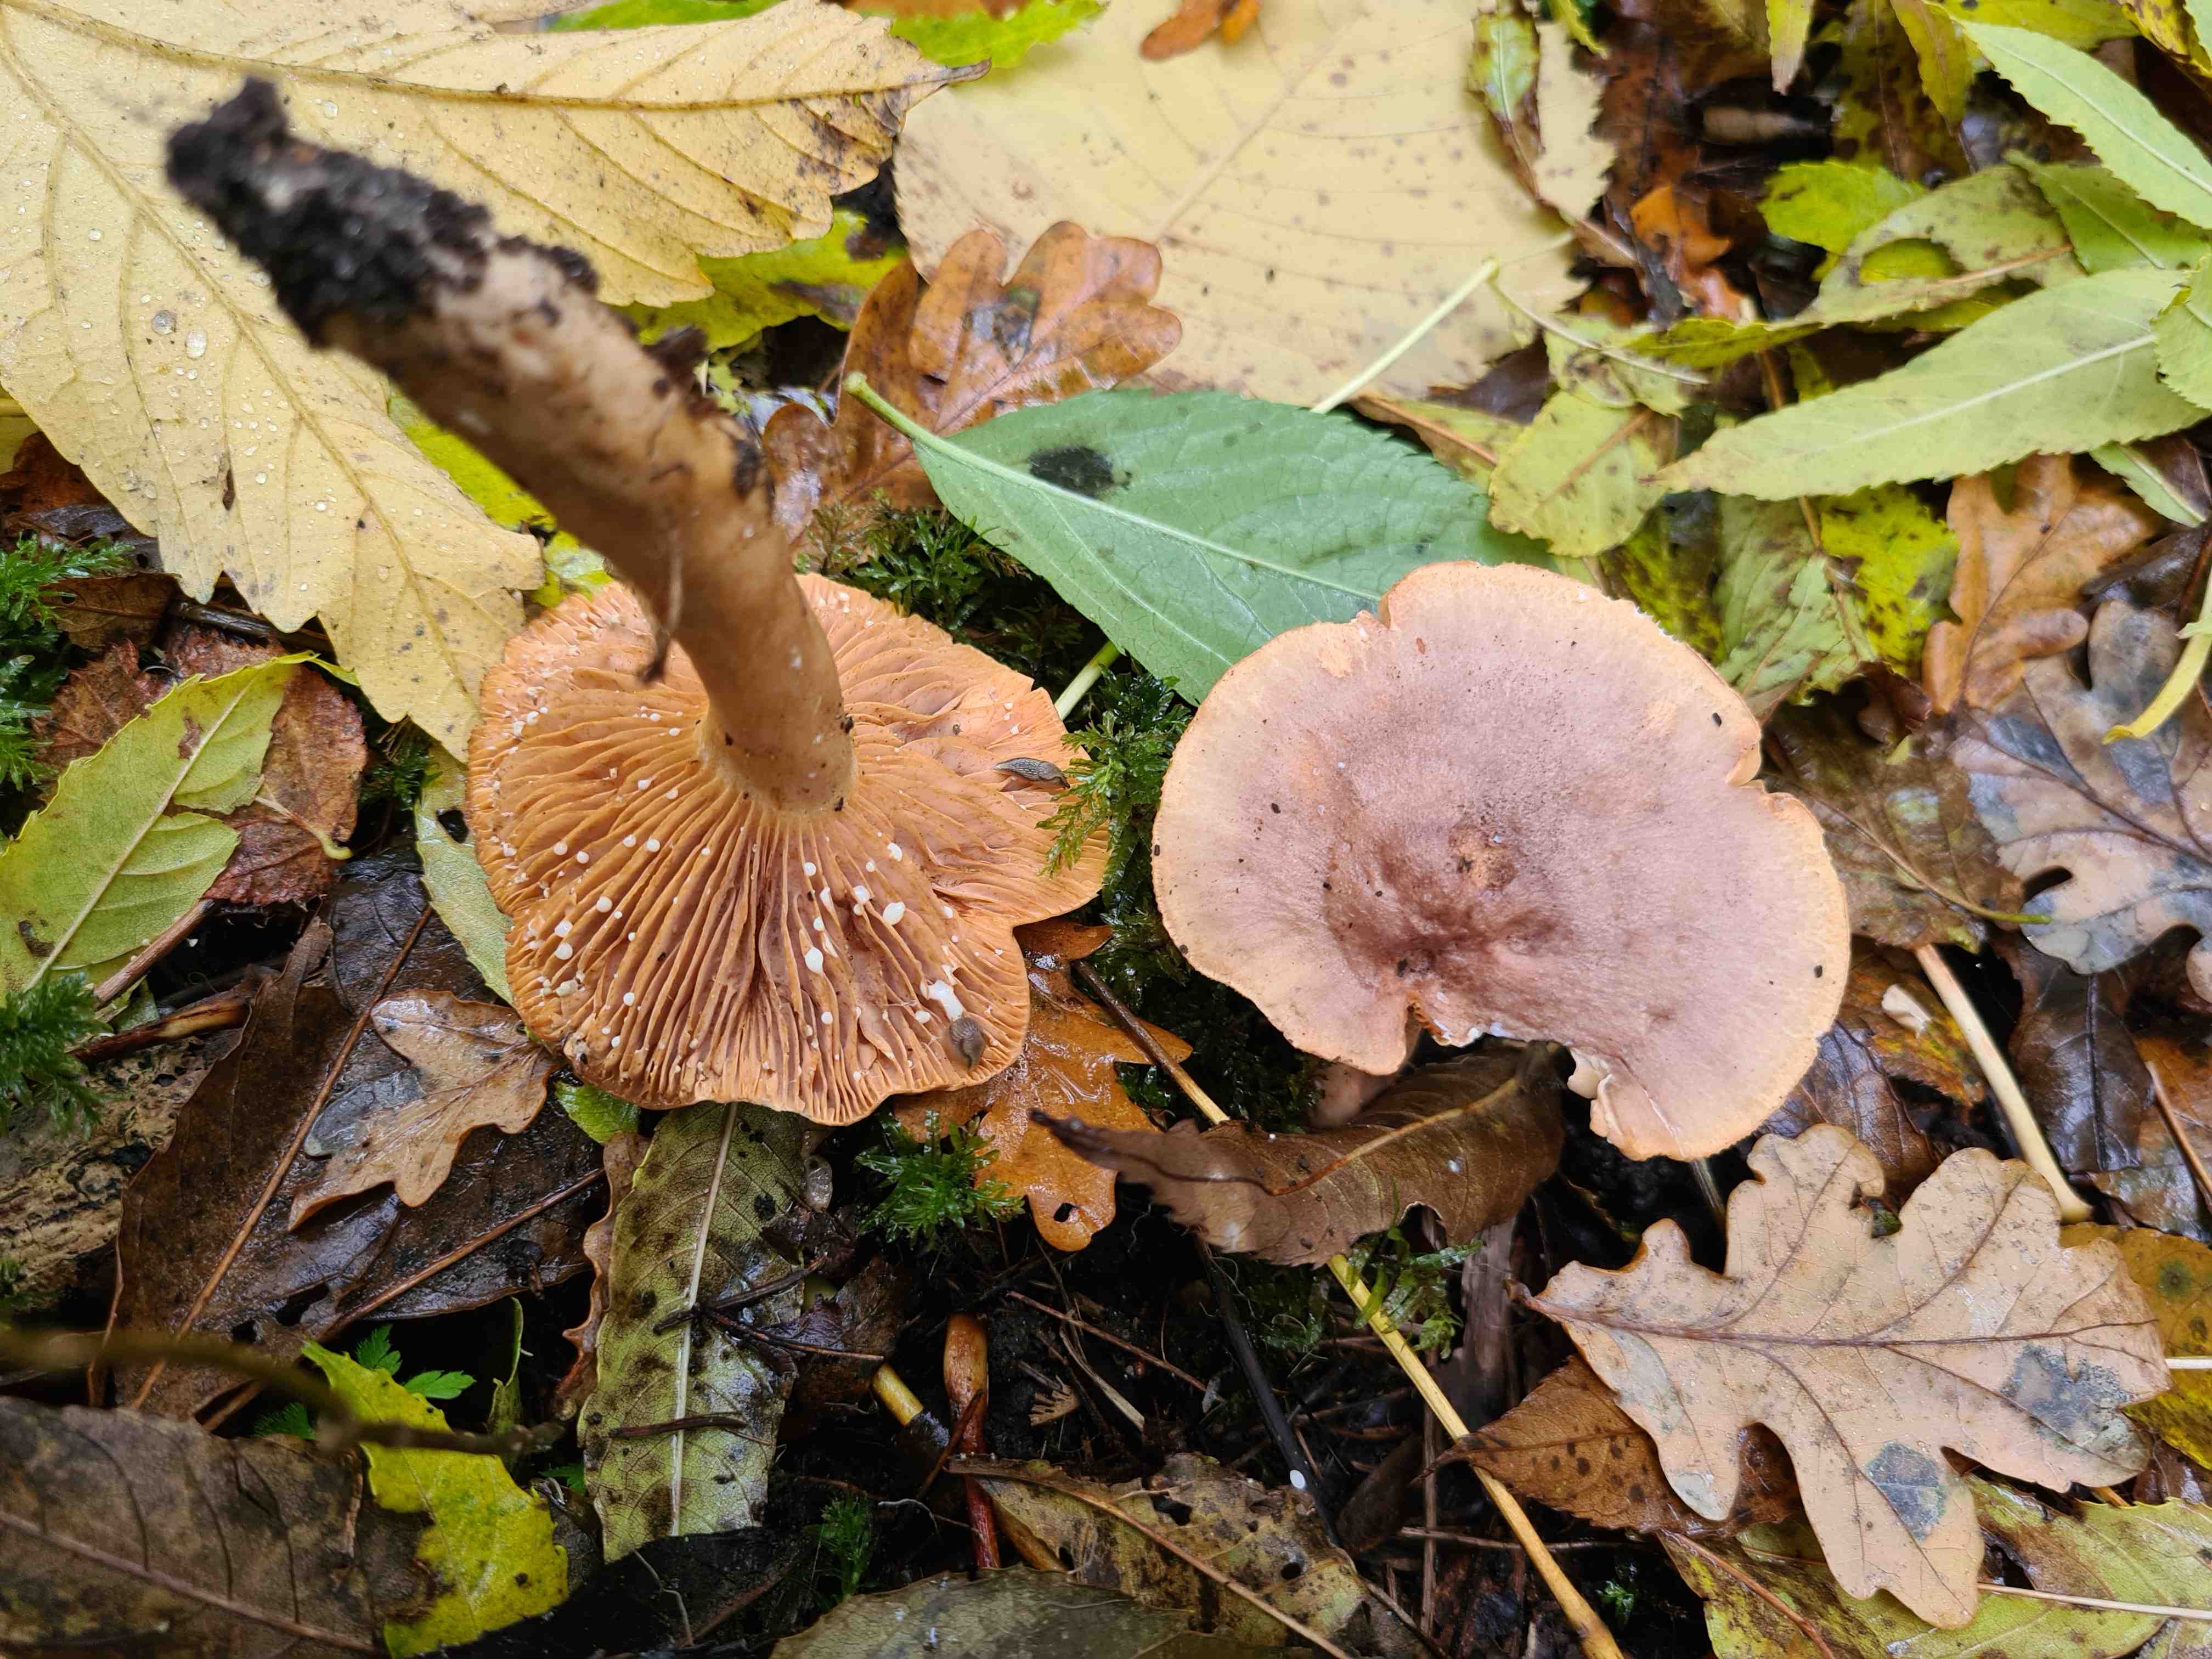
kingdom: Fungi
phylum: Basidiomycota
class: Agaricomycetes
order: Russulales
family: Russulaceae
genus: Lactarius
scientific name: Lactarius
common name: mælkehat
